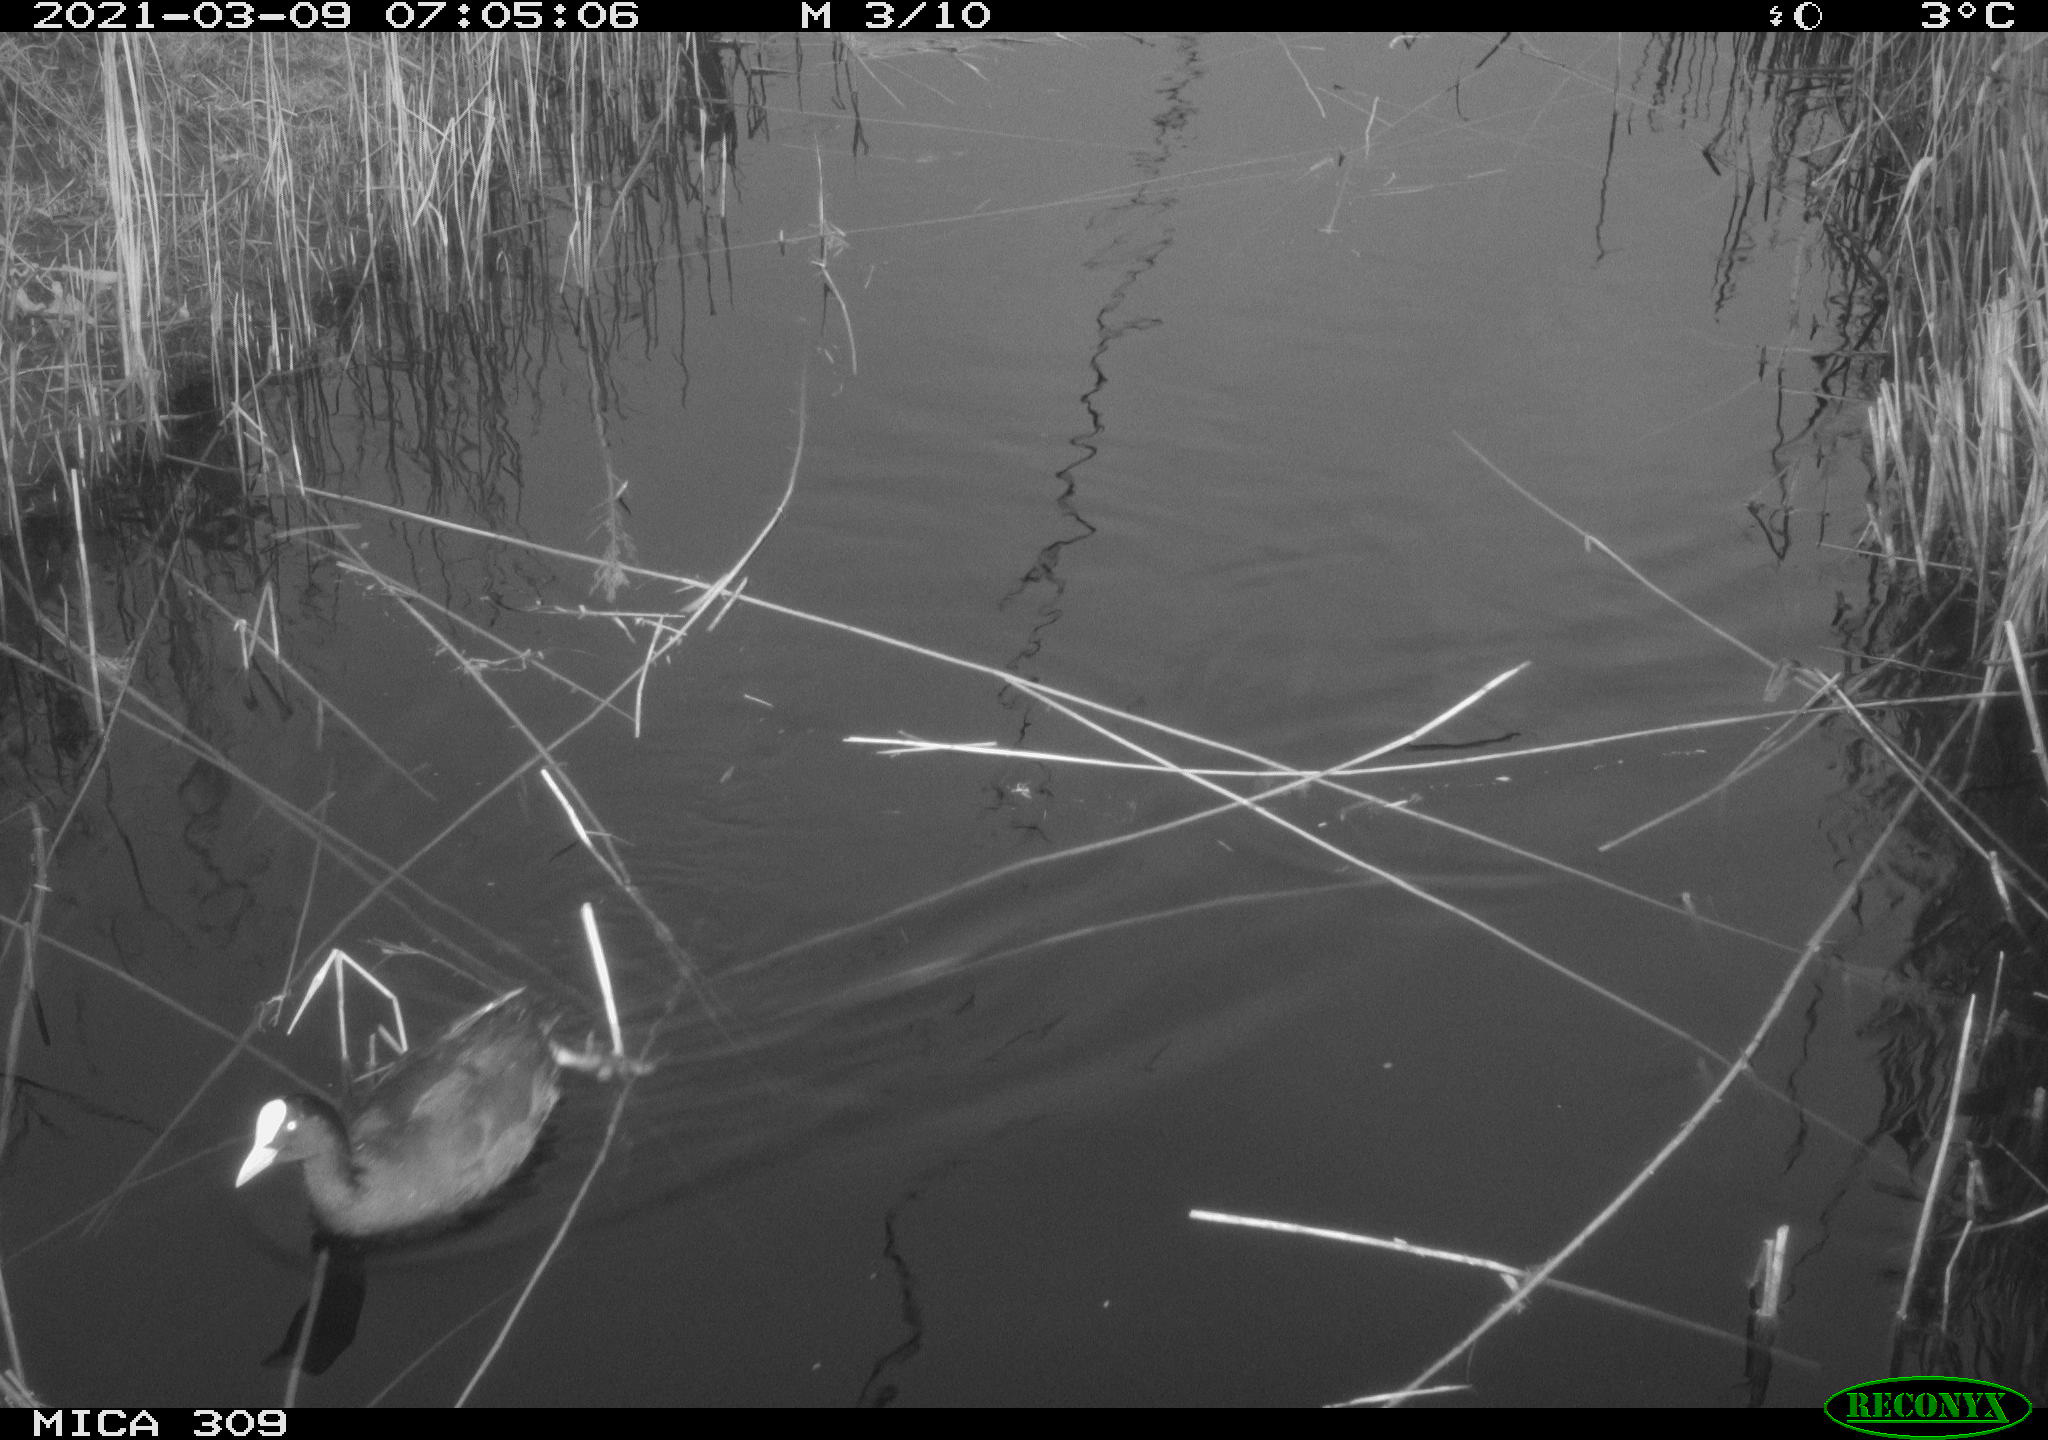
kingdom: Animalia
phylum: Chordata
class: Aves
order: Gruiformes
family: Rallidae
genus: Fulica
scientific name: Fulica atra
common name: Eurasian coot
